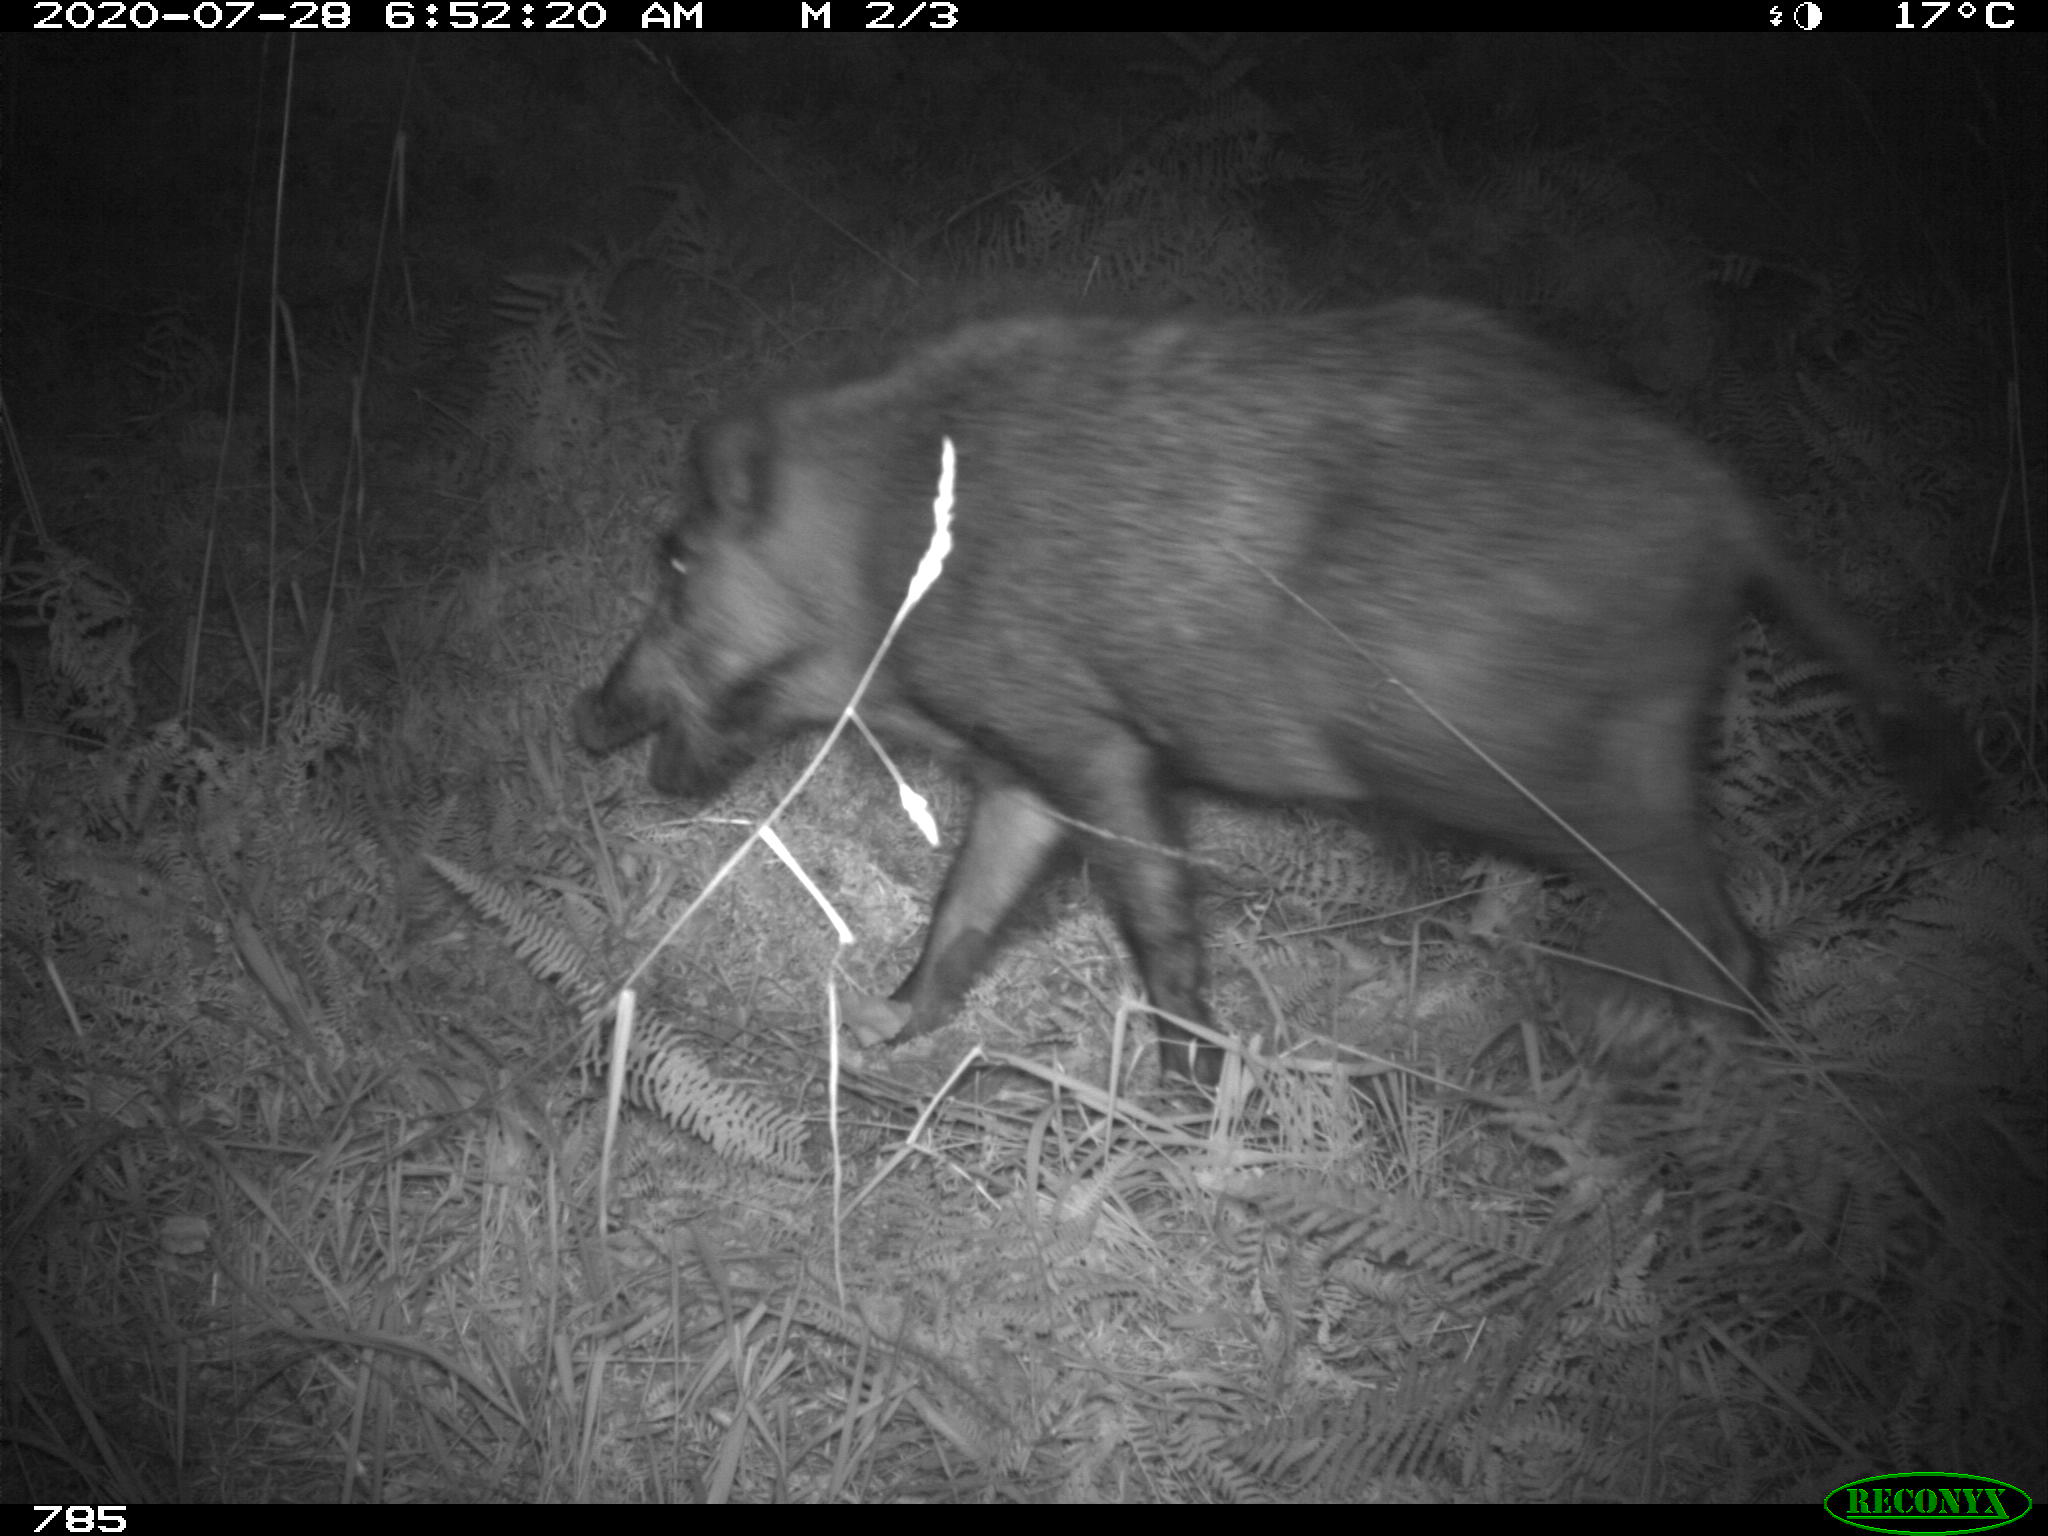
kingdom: Animalia
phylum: Chordata
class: Mammalia
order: Artiodactyla
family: Suidae
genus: Sus
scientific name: Sus scrofa
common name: Wild boar
